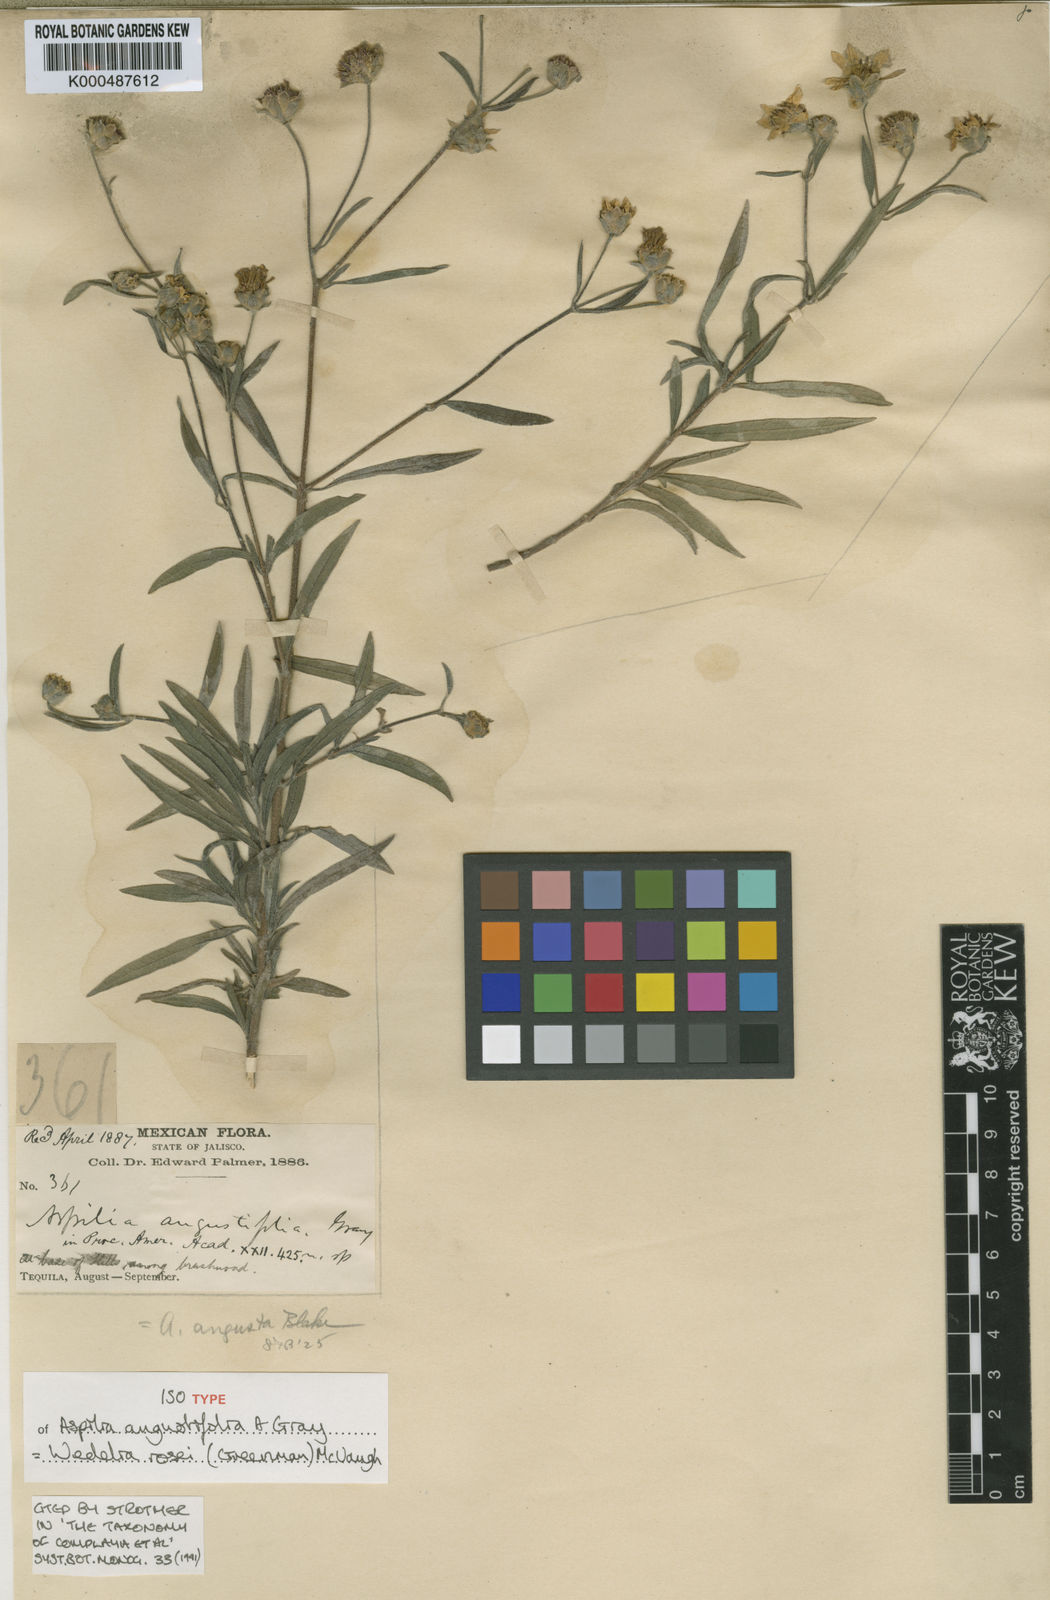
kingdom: Plantae
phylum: Tracheophyta
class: Magnoliopsida
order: Asterales
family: Asteraceae
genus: Wedelia
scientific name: Wedelia rosei
